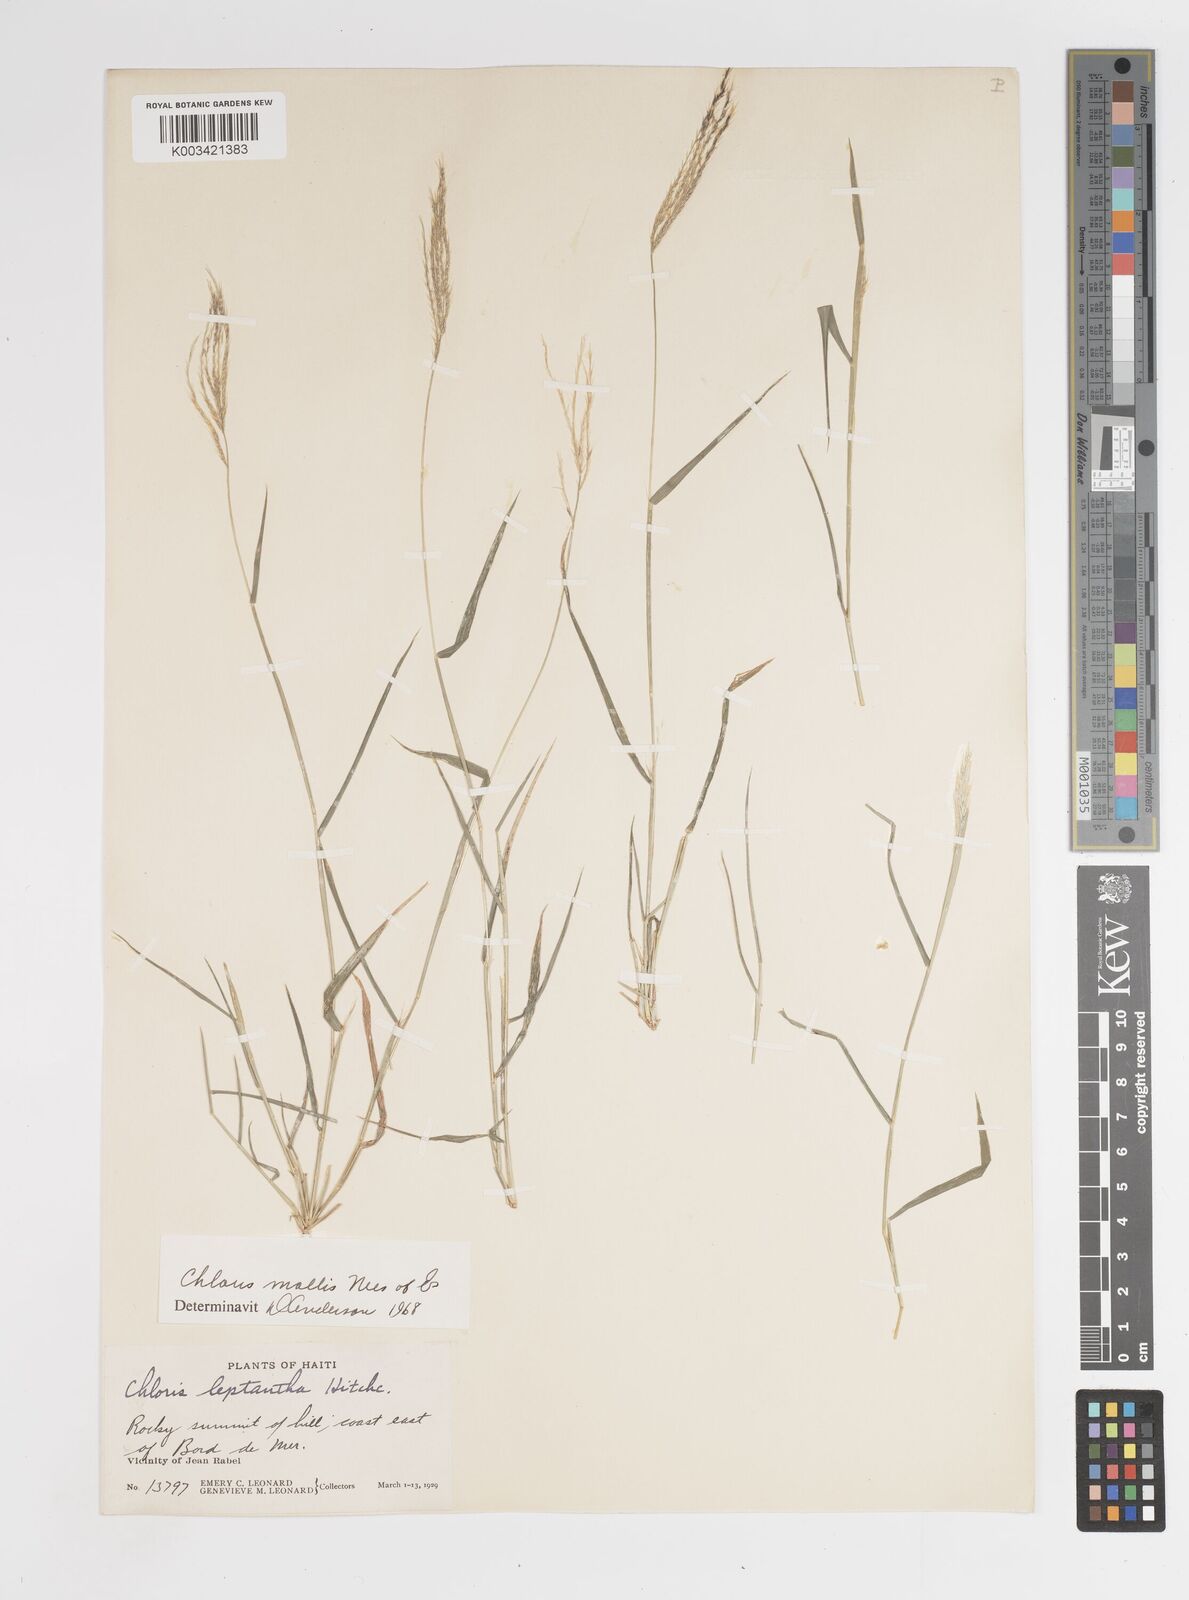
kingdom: Plantae
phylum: Tracheophyta
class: Liliopsida
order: Poales
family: Poaceae
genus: Leptochloa
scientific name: Leptochloa anisopoda
